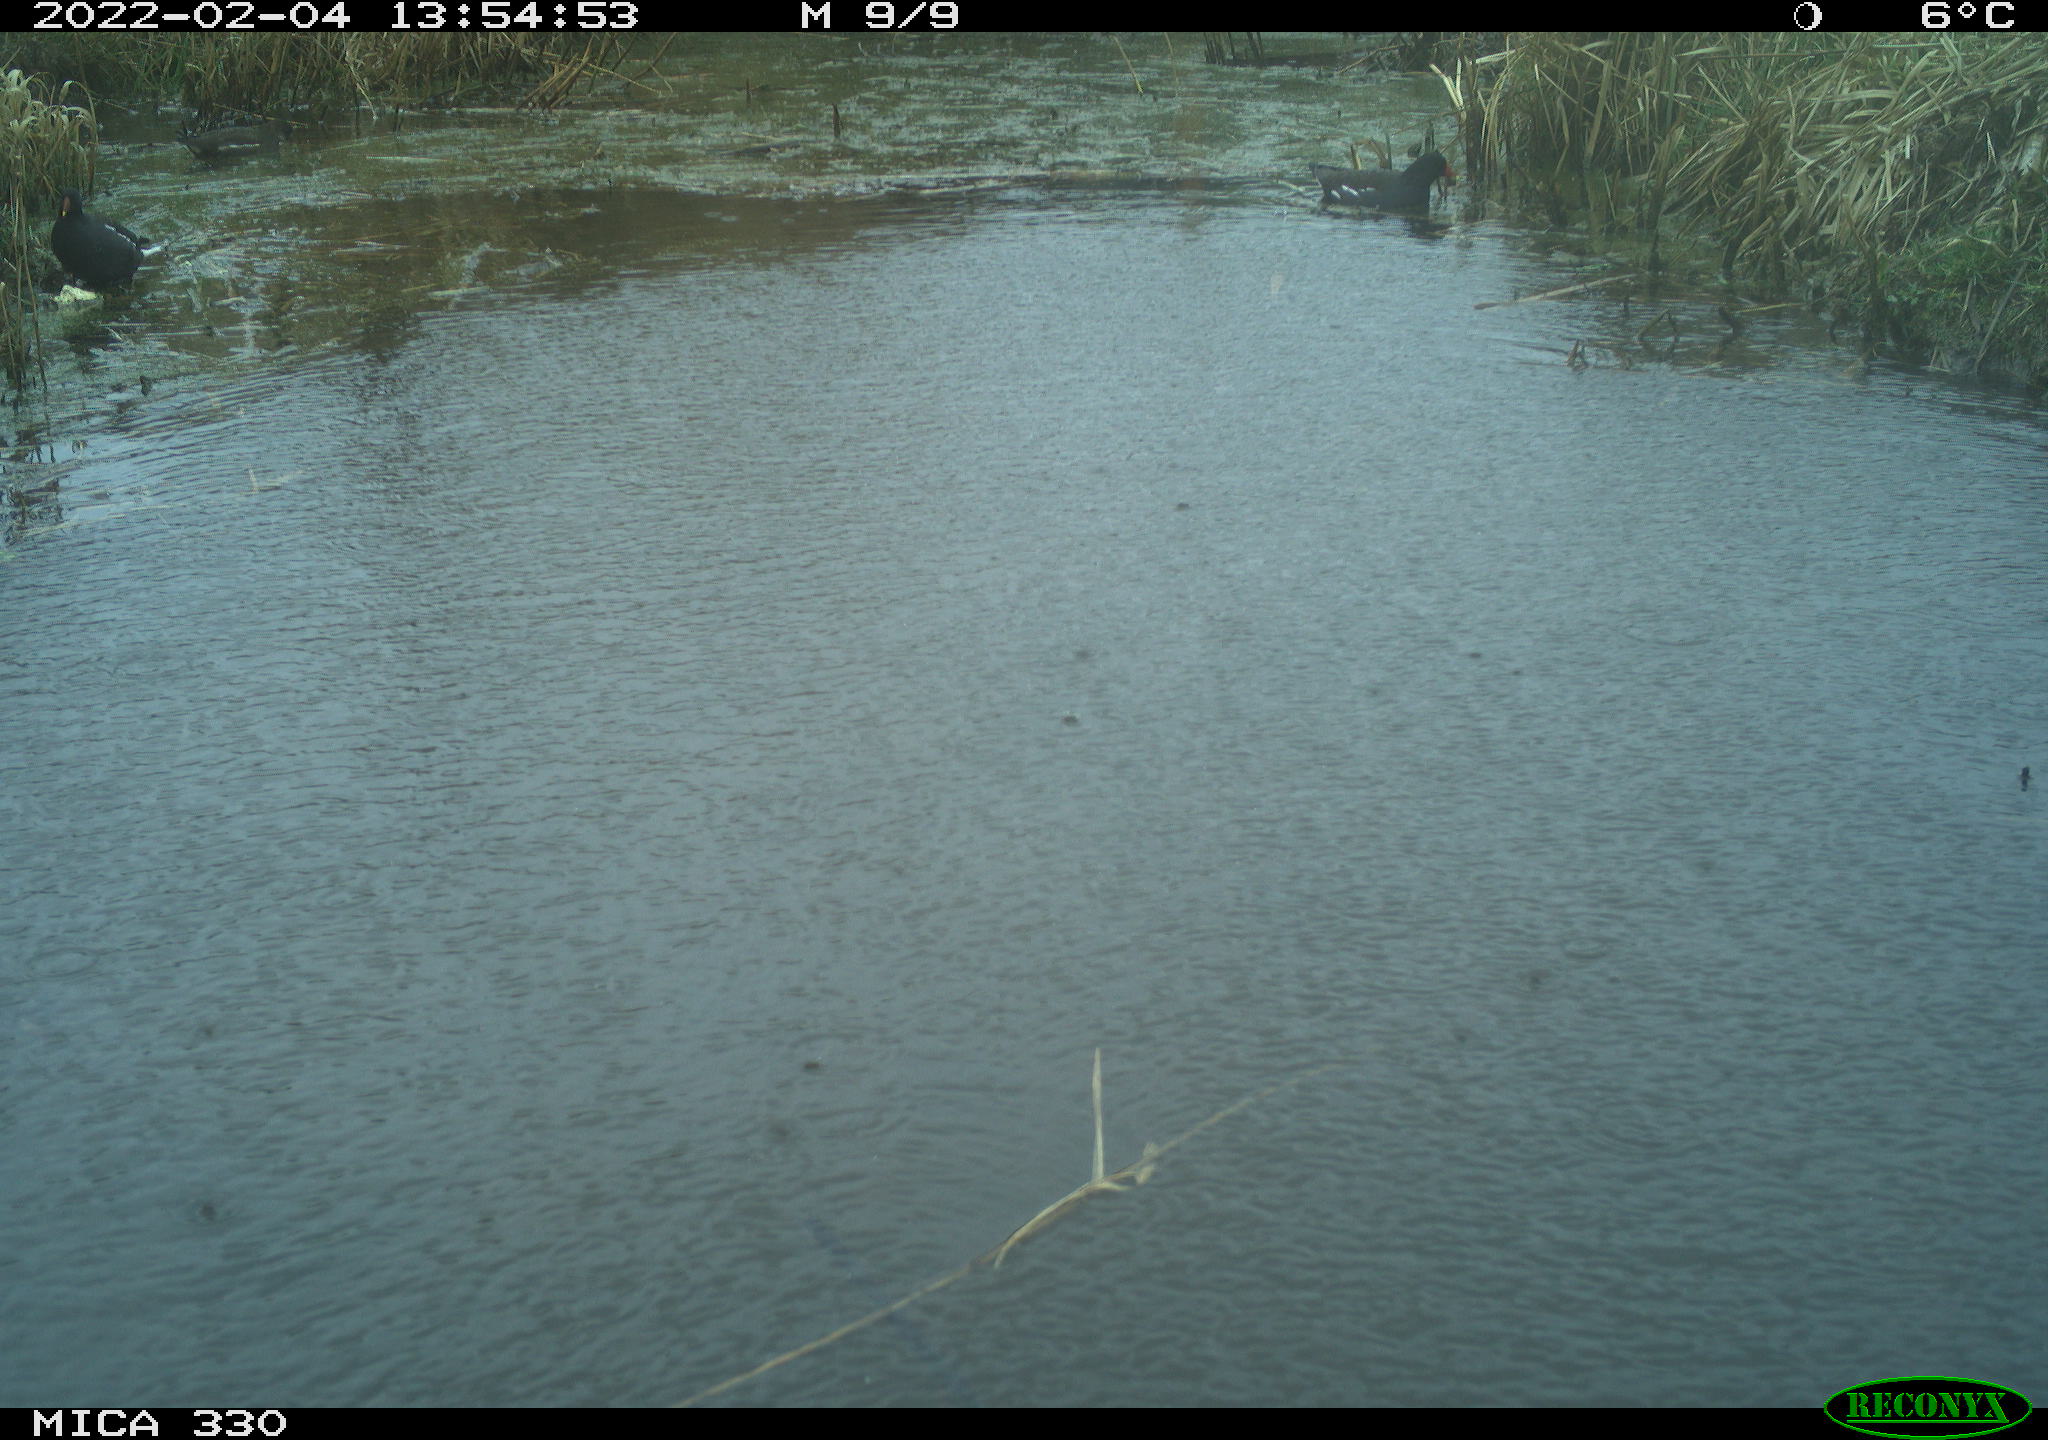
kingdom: Animalia
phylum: Chordata
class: Aves
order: Gruiformes
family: Rallidae
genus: Gallinula
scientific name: Gallinula chloropus
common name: Common moorhen
